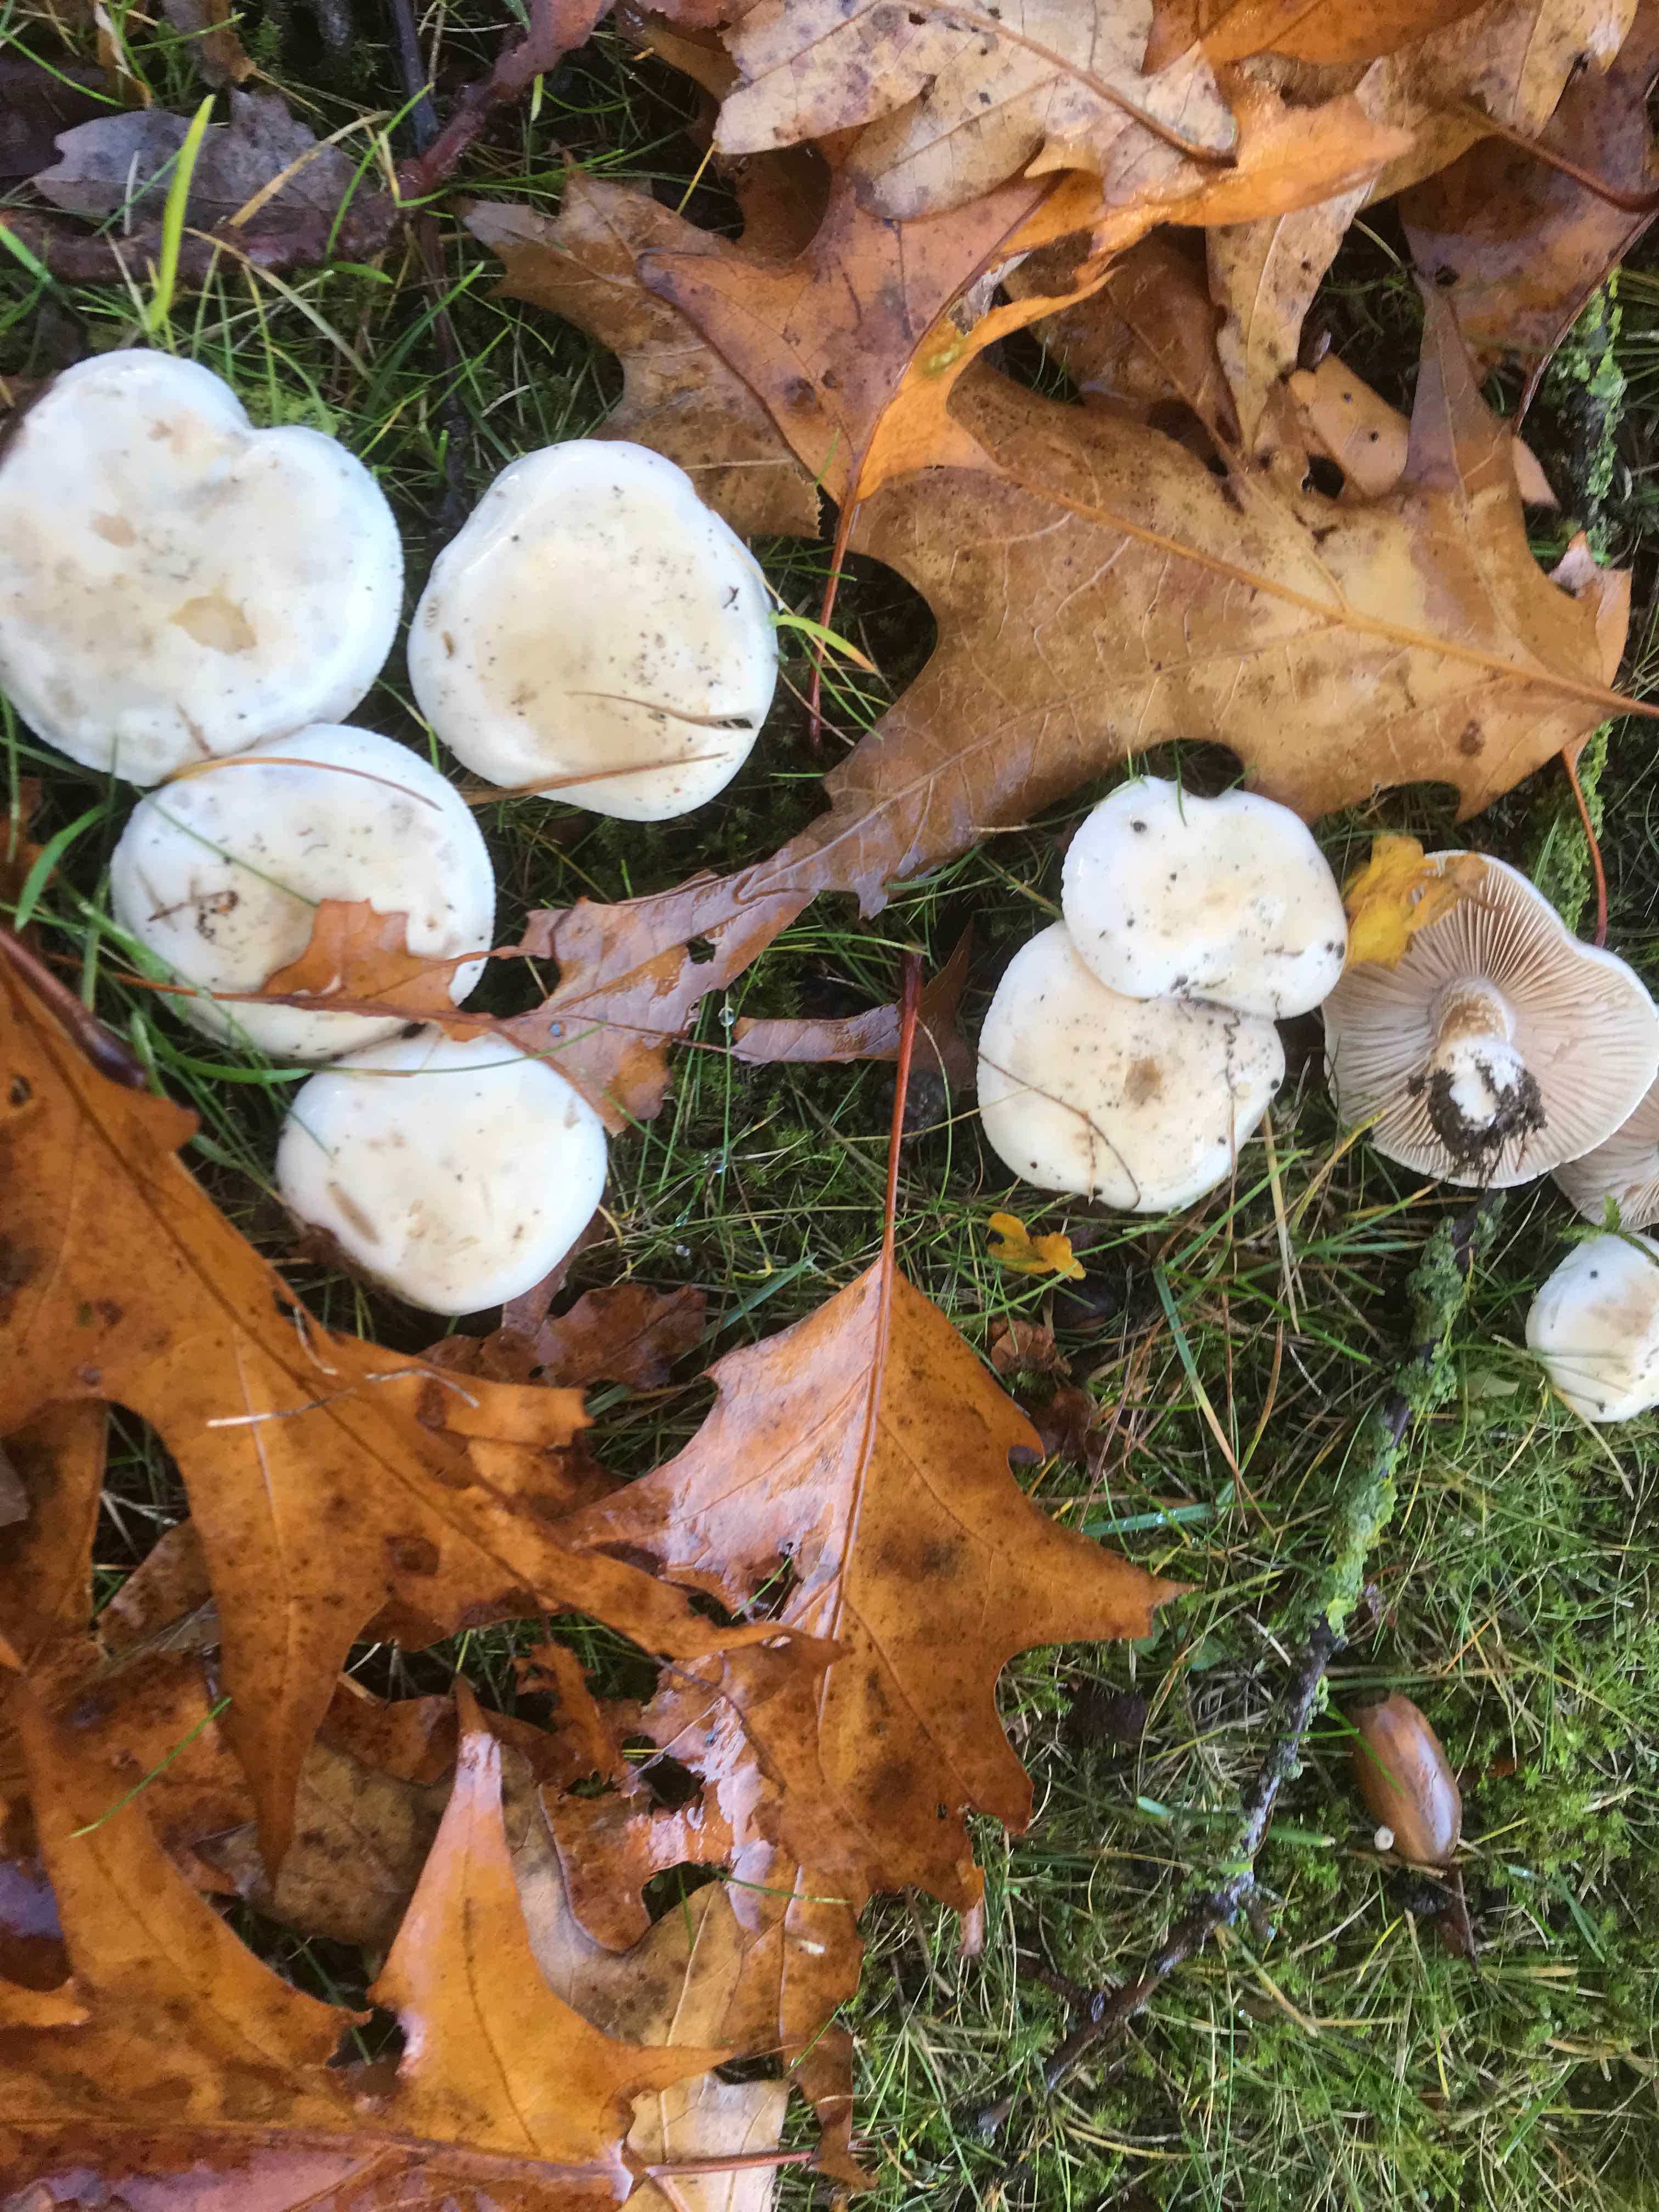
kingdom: Fungi
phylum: Basidiomycota
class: Agaricomycetes
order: Agaricales
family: Hymenogastraceae
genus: Hebeloma
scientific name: Hebeloma crustuliniforme
